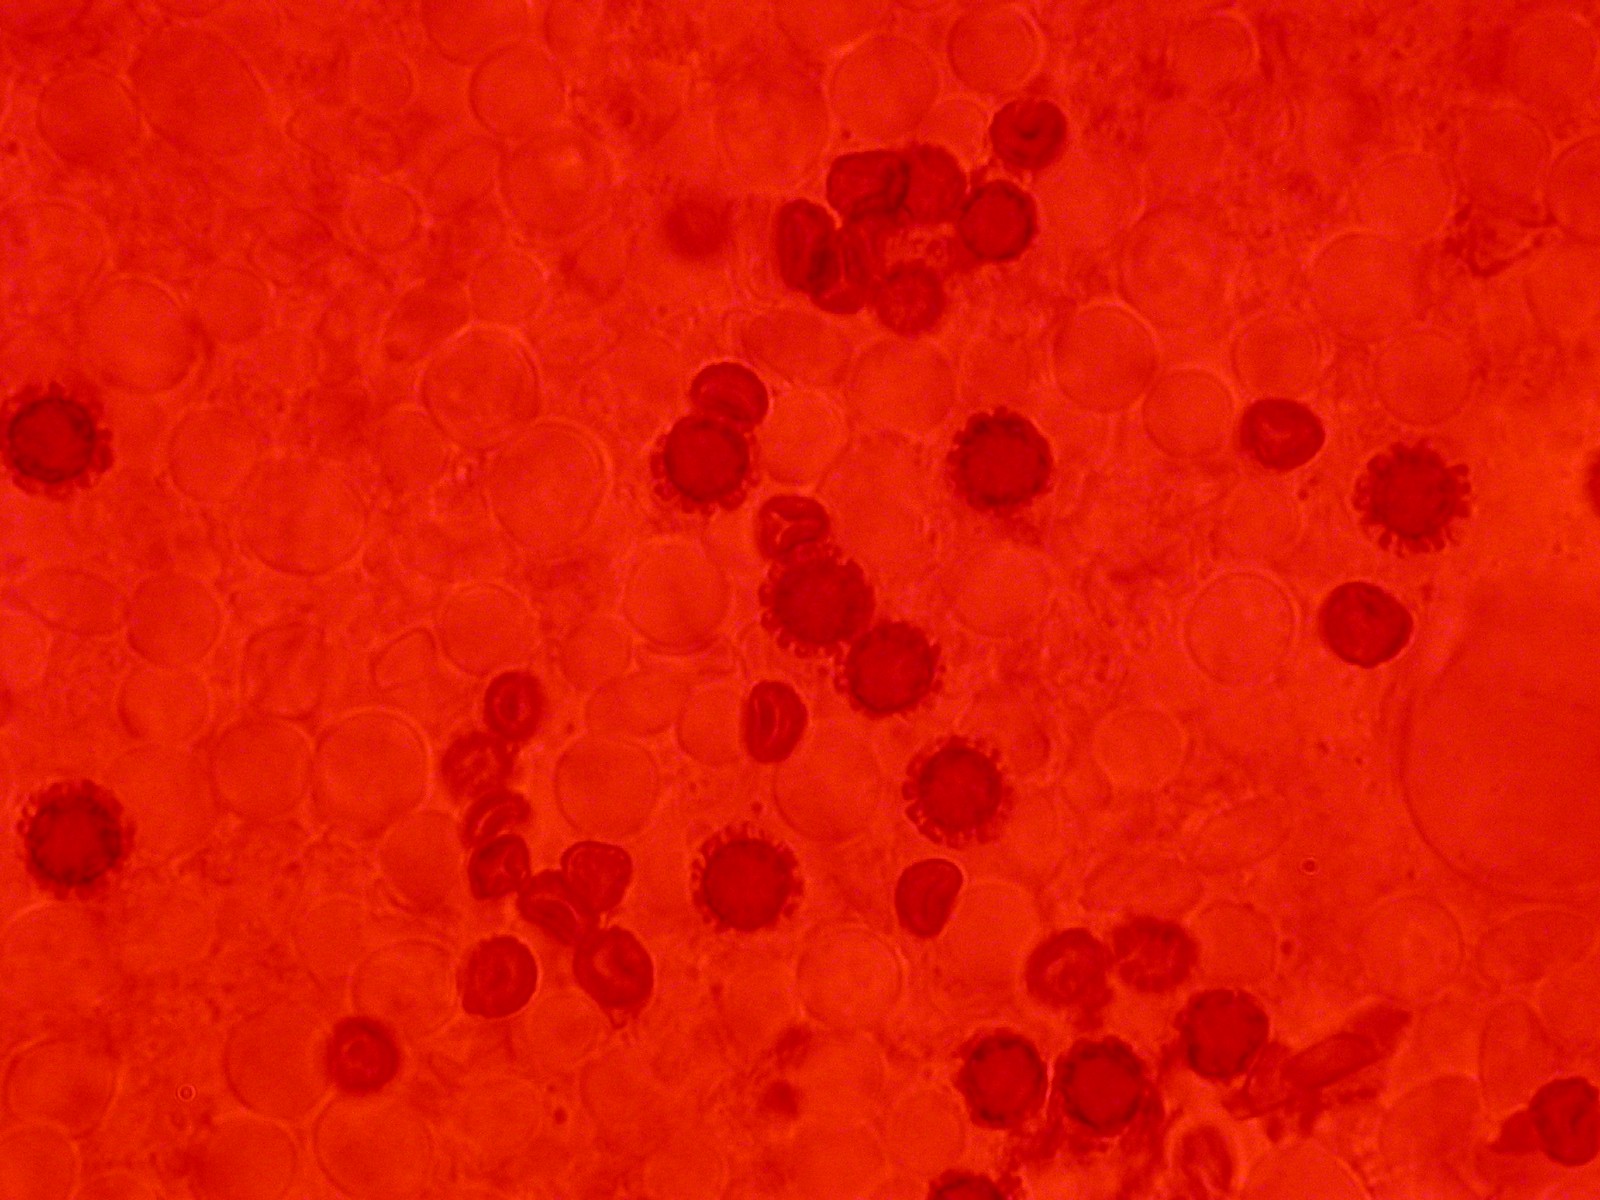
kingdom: Fungi
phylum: Basidiomycota
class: Agaricomycetes
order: Geastrales
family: Geastraceae
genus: Geastrum
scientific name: Geastrum pectinatum
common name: stilket stjernebold
